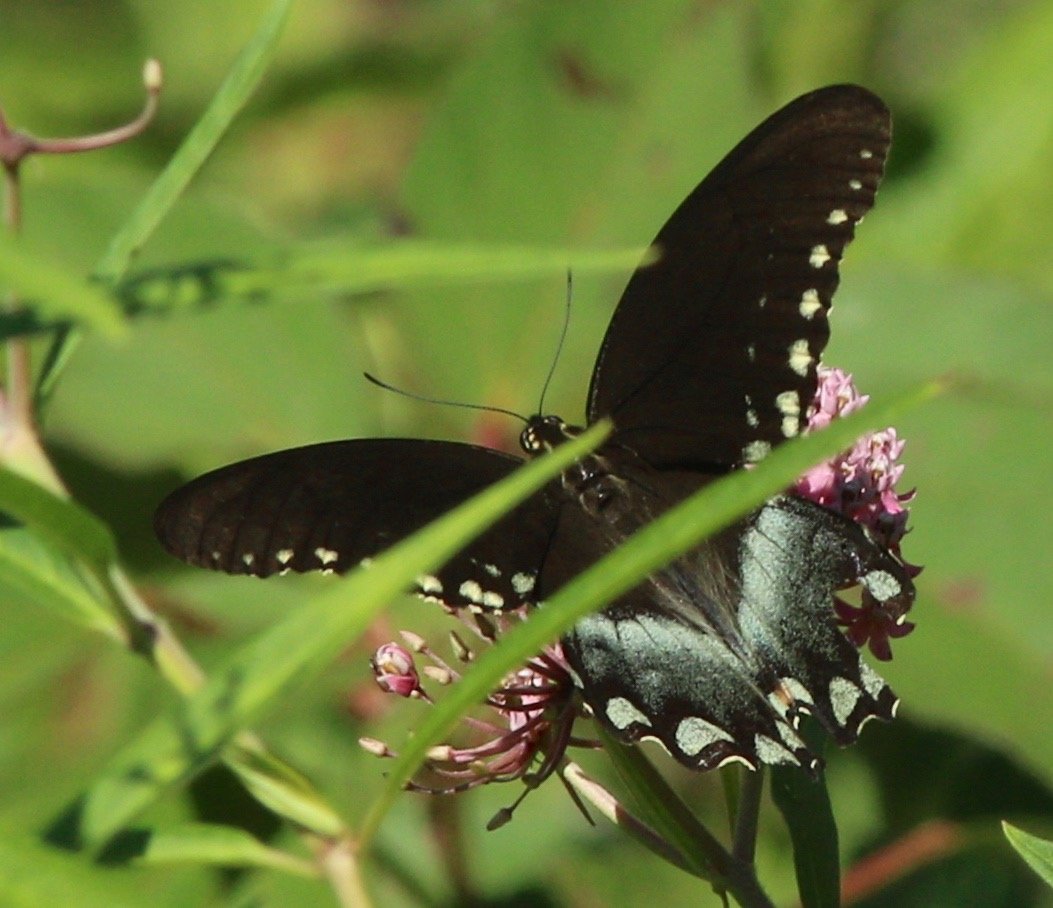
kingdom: Animalia
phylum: Arthropoda
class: Insecta
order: Lepidoptera
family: Papilionidae
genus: Pterourus
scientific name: Pterourus troilus
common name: Spicebush Swallowtail
